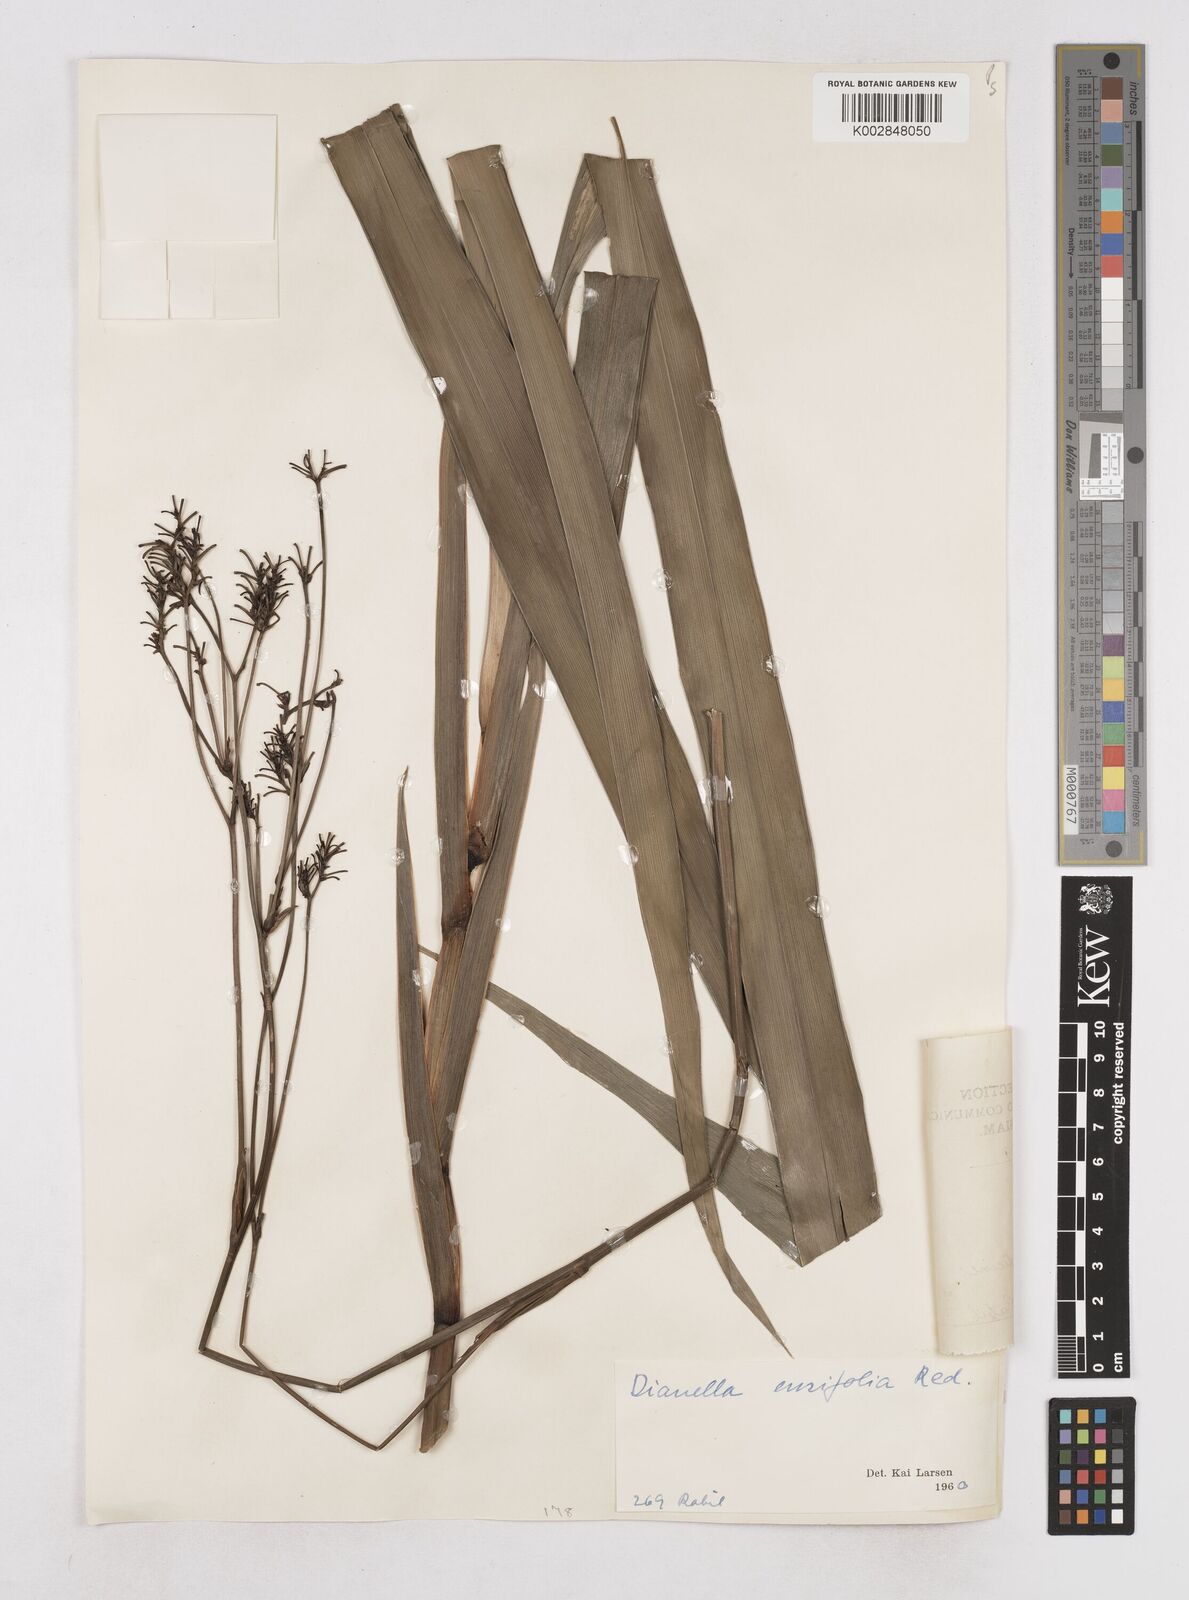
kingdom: Plantae
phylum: Tracheophyta
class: Liliopsida
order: Asparagales
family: Asphodelaceae
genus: Dianella
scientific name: Dianella ensifolia
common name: New zealand lilyplant
